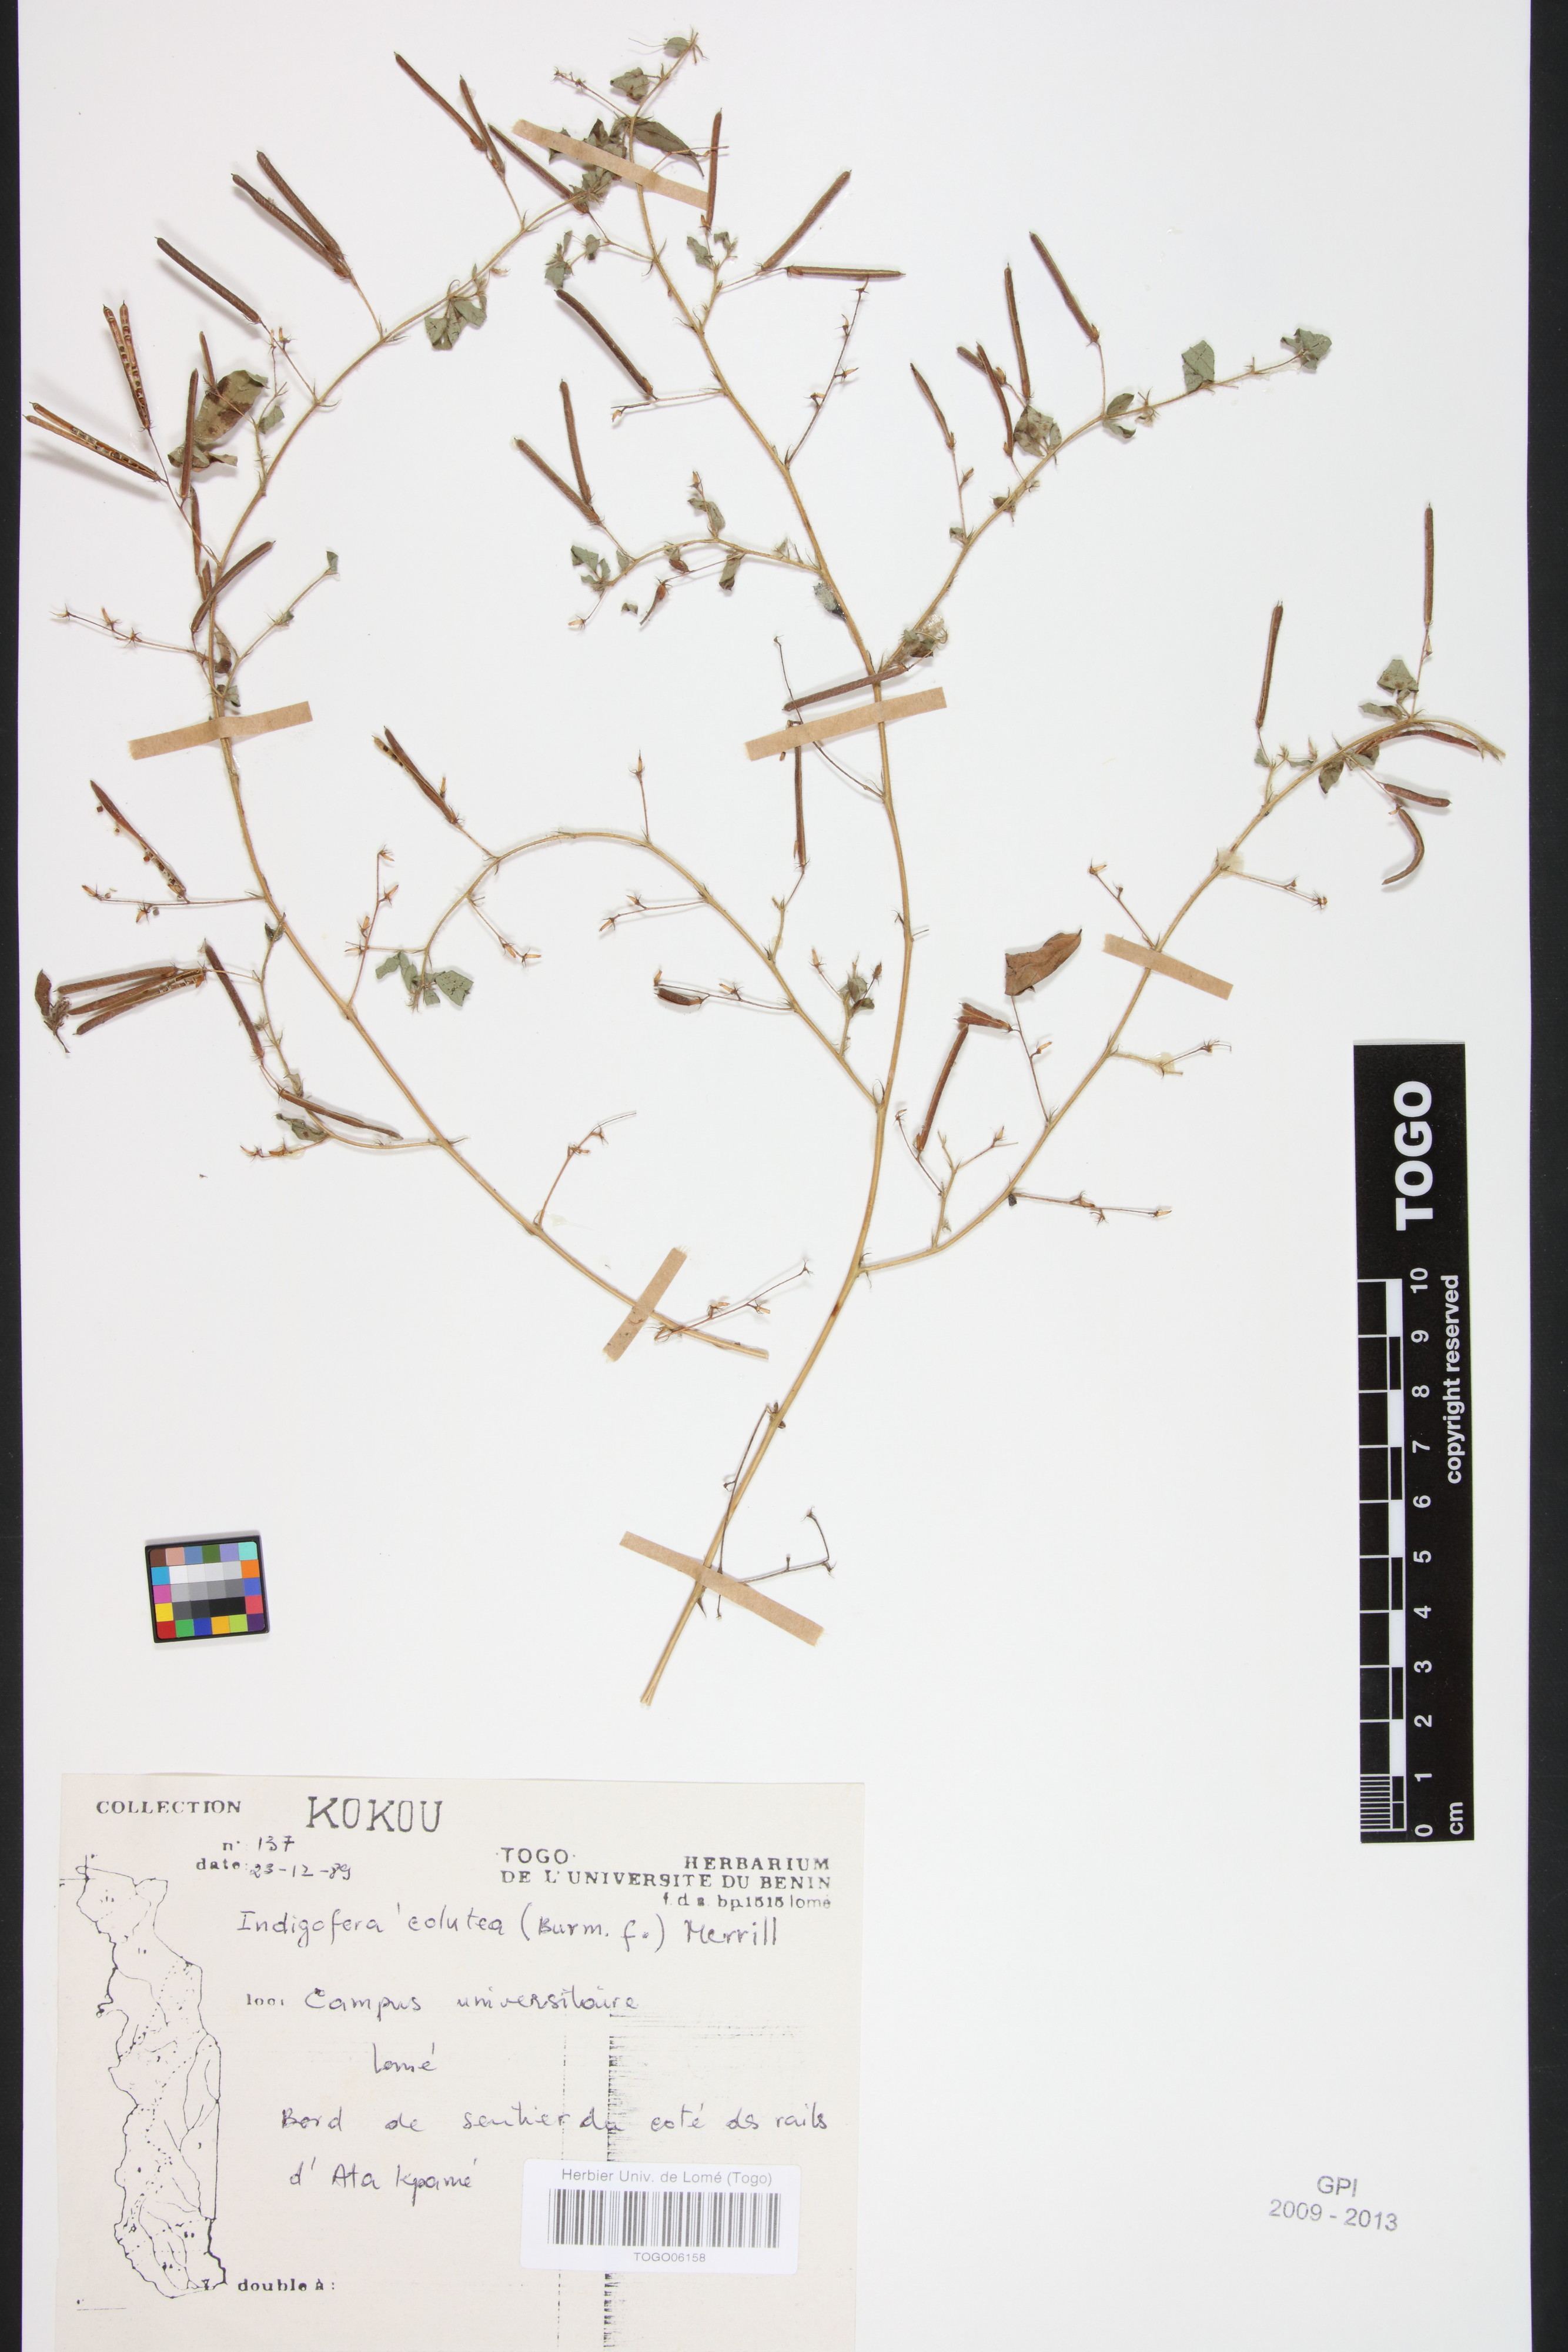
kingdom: Plantae
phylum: Tracheophyta
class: Magnoliopsida
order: Fabales
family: Fabaceae
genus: Indigofera
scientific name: Indigofera colutea
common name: Rusty indigo
